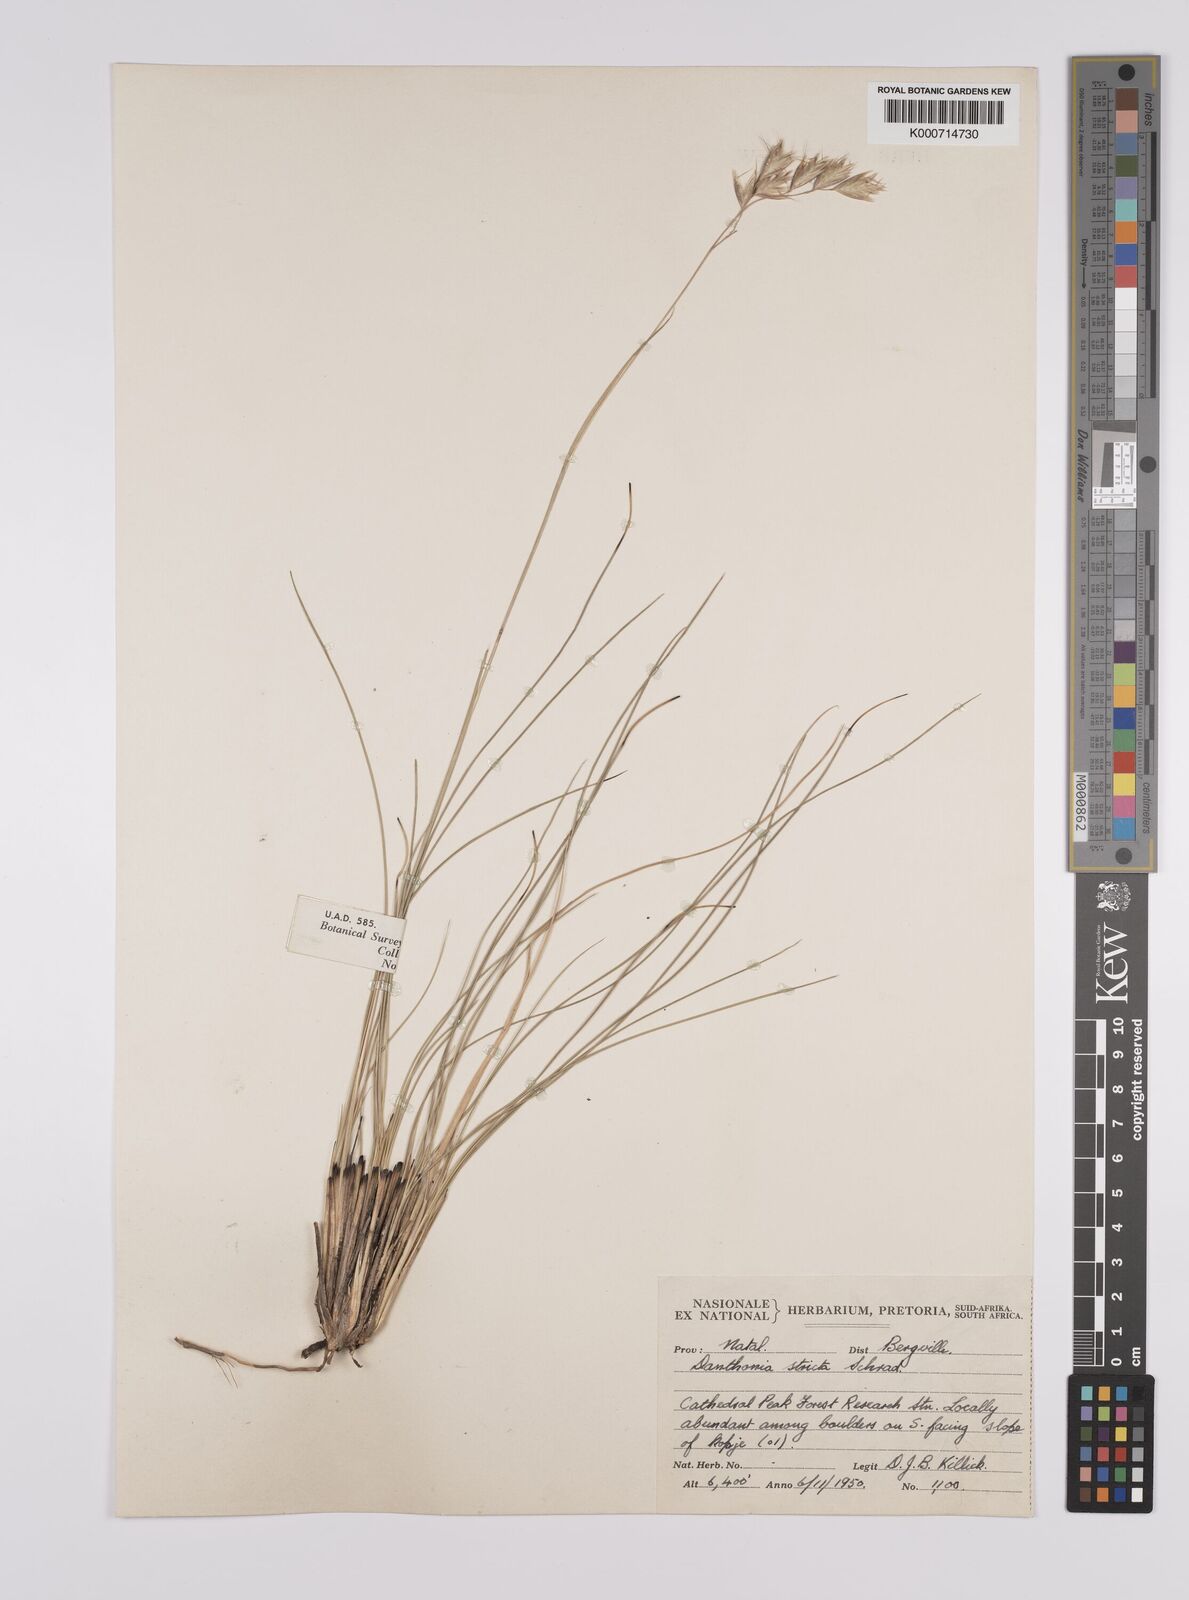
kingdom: Plantae
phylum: Tracheophyta
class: Liliopsida
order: Poales
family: Poaceae
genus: Rytidosperma
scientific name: Rytidosperma
